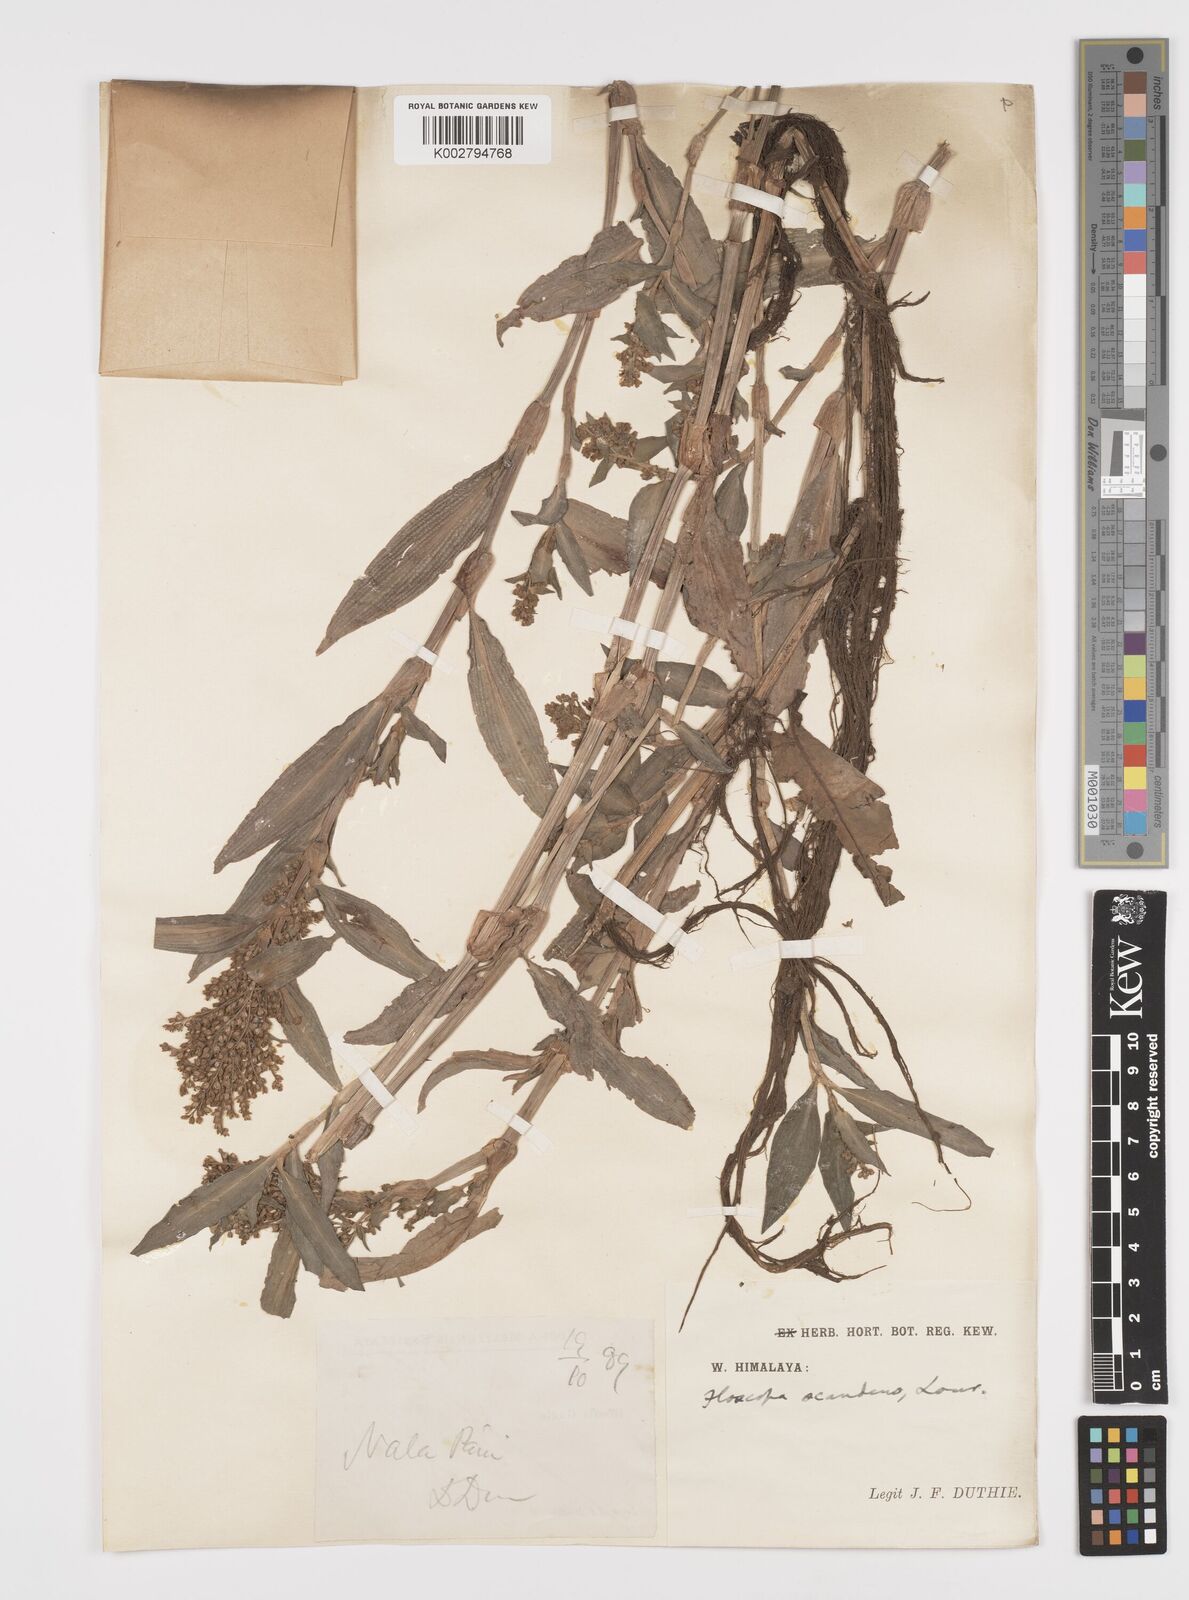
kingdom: Plantae
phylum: Tracheophyta
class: Liliopsida
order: Commelinales
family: Commelinaceae
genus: Floscopa
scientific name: Floscopa scandens
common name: Climbing flower cup
